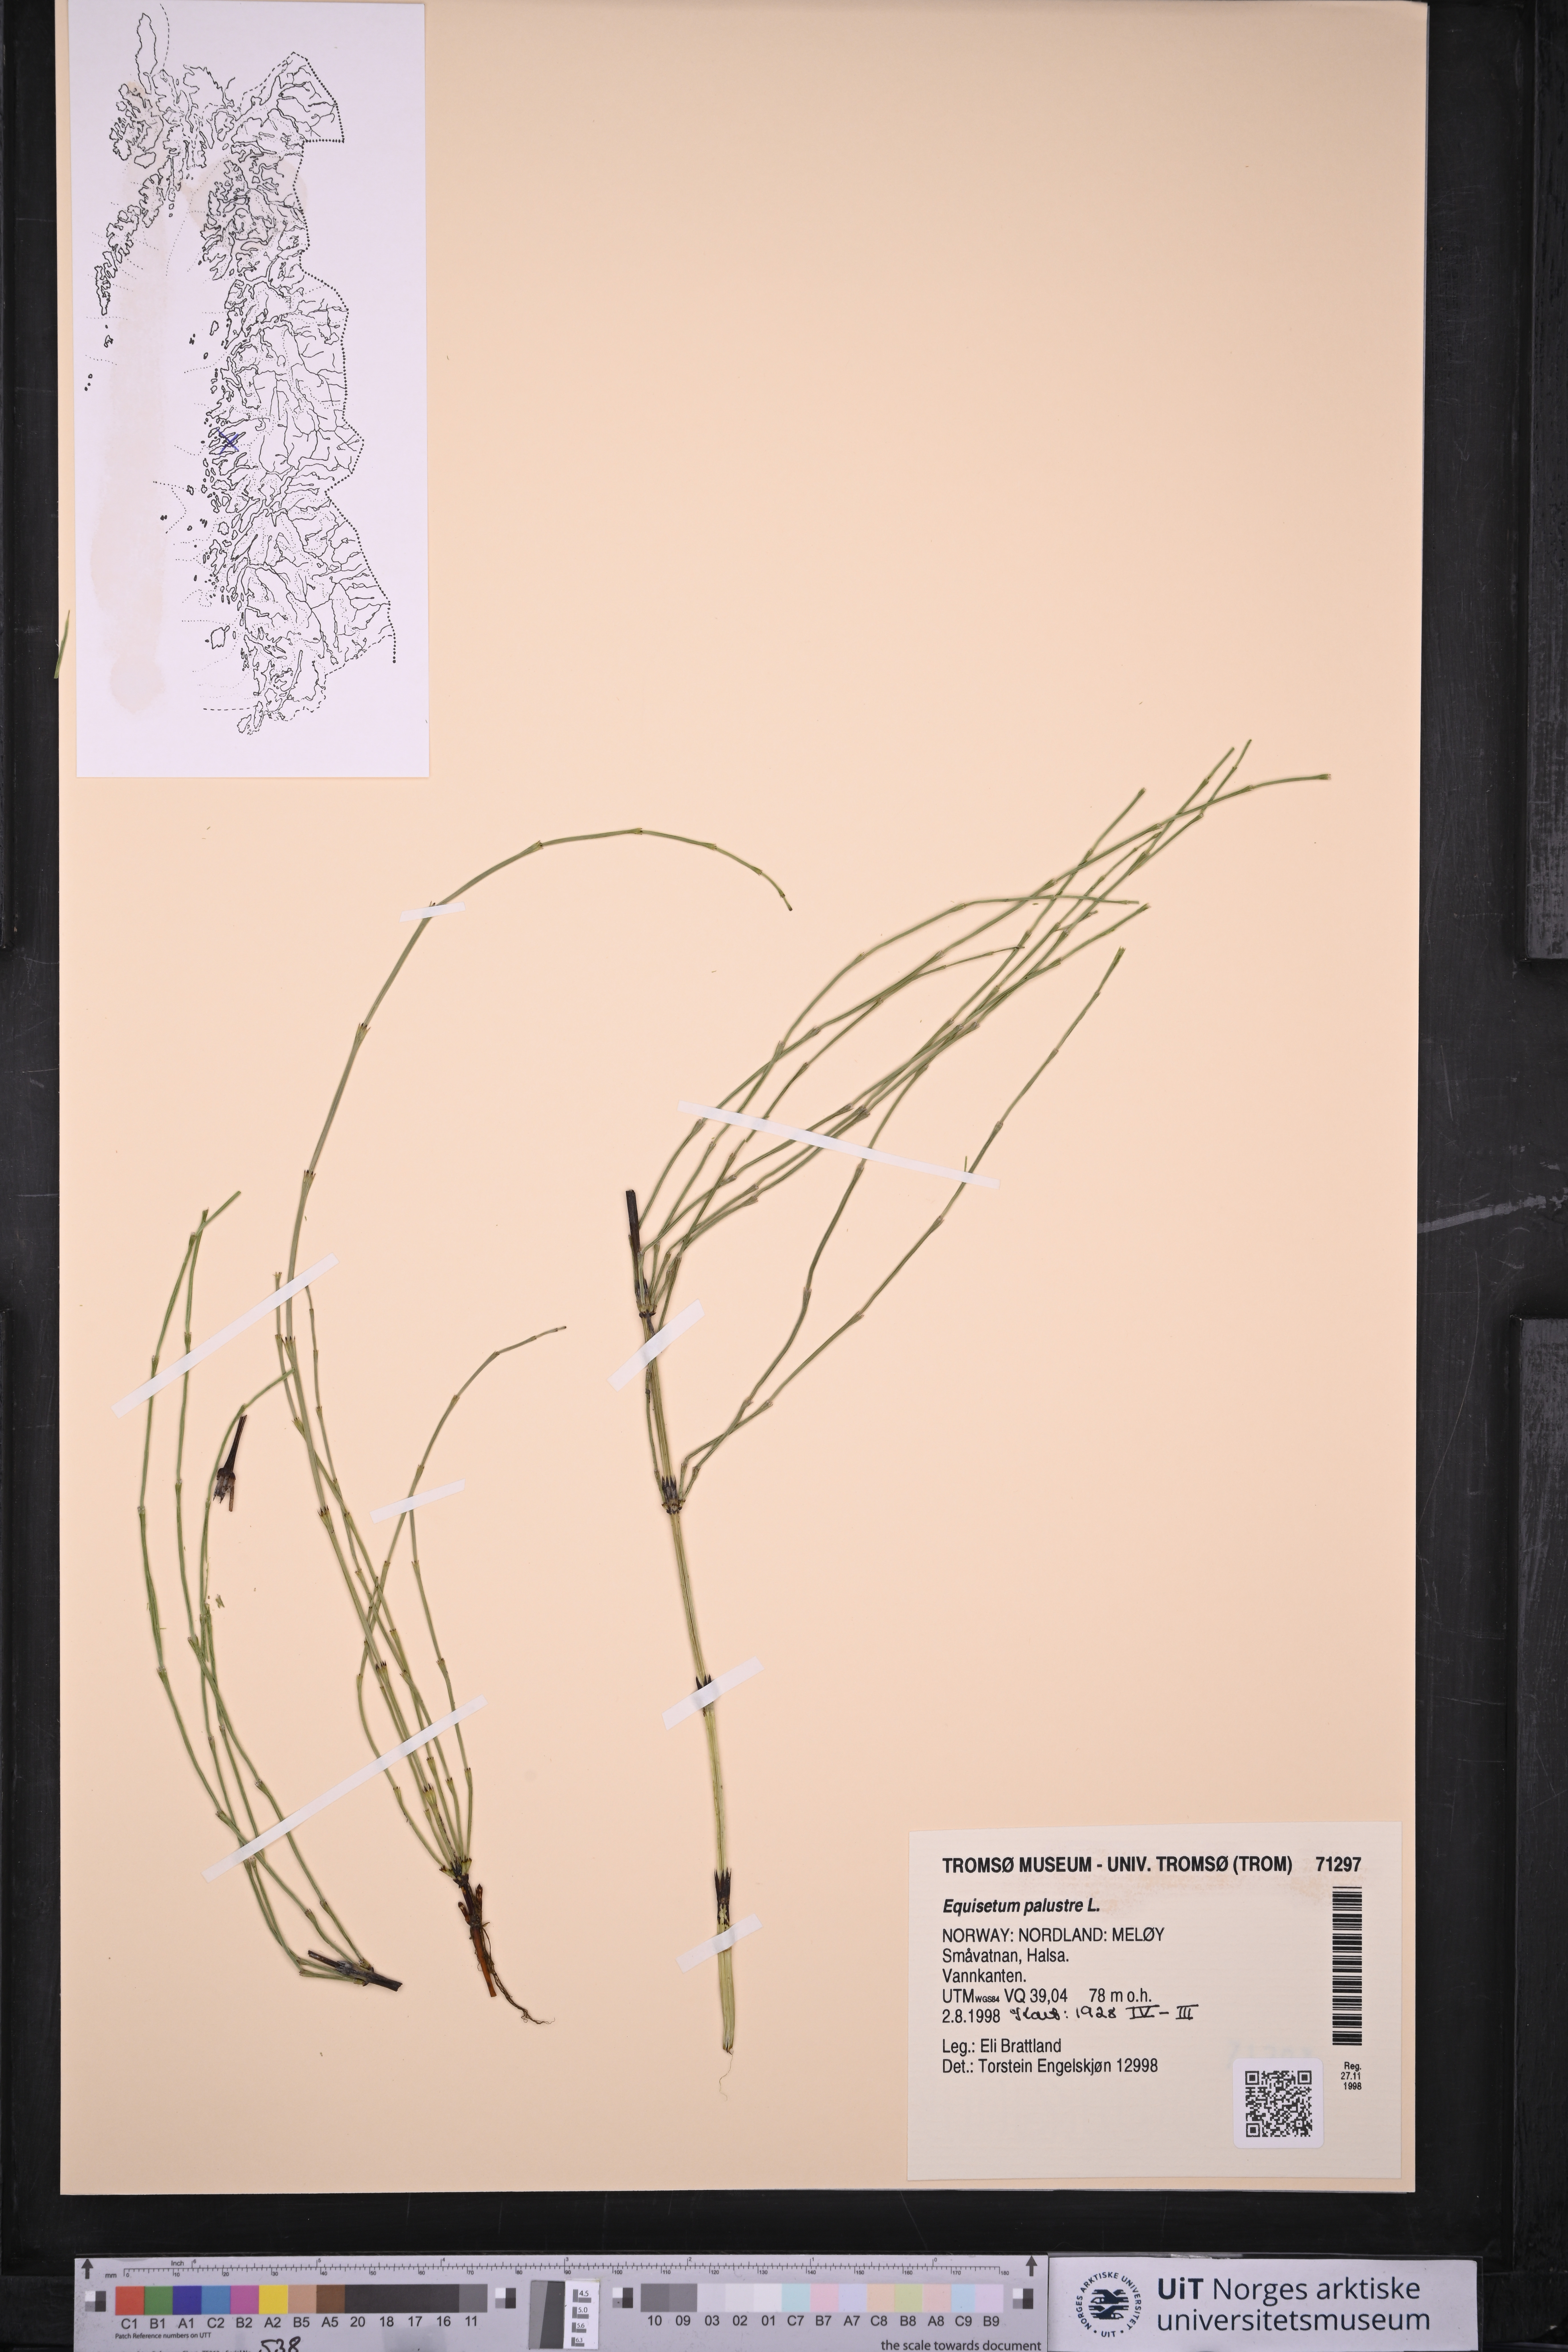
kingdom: Plantae
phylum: Tracheophyta
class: Polypodiopsida
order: Equisetales
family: Equisetaceae
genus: Equisetum
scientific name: Equisetum palustre
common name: Marsh horsetail
